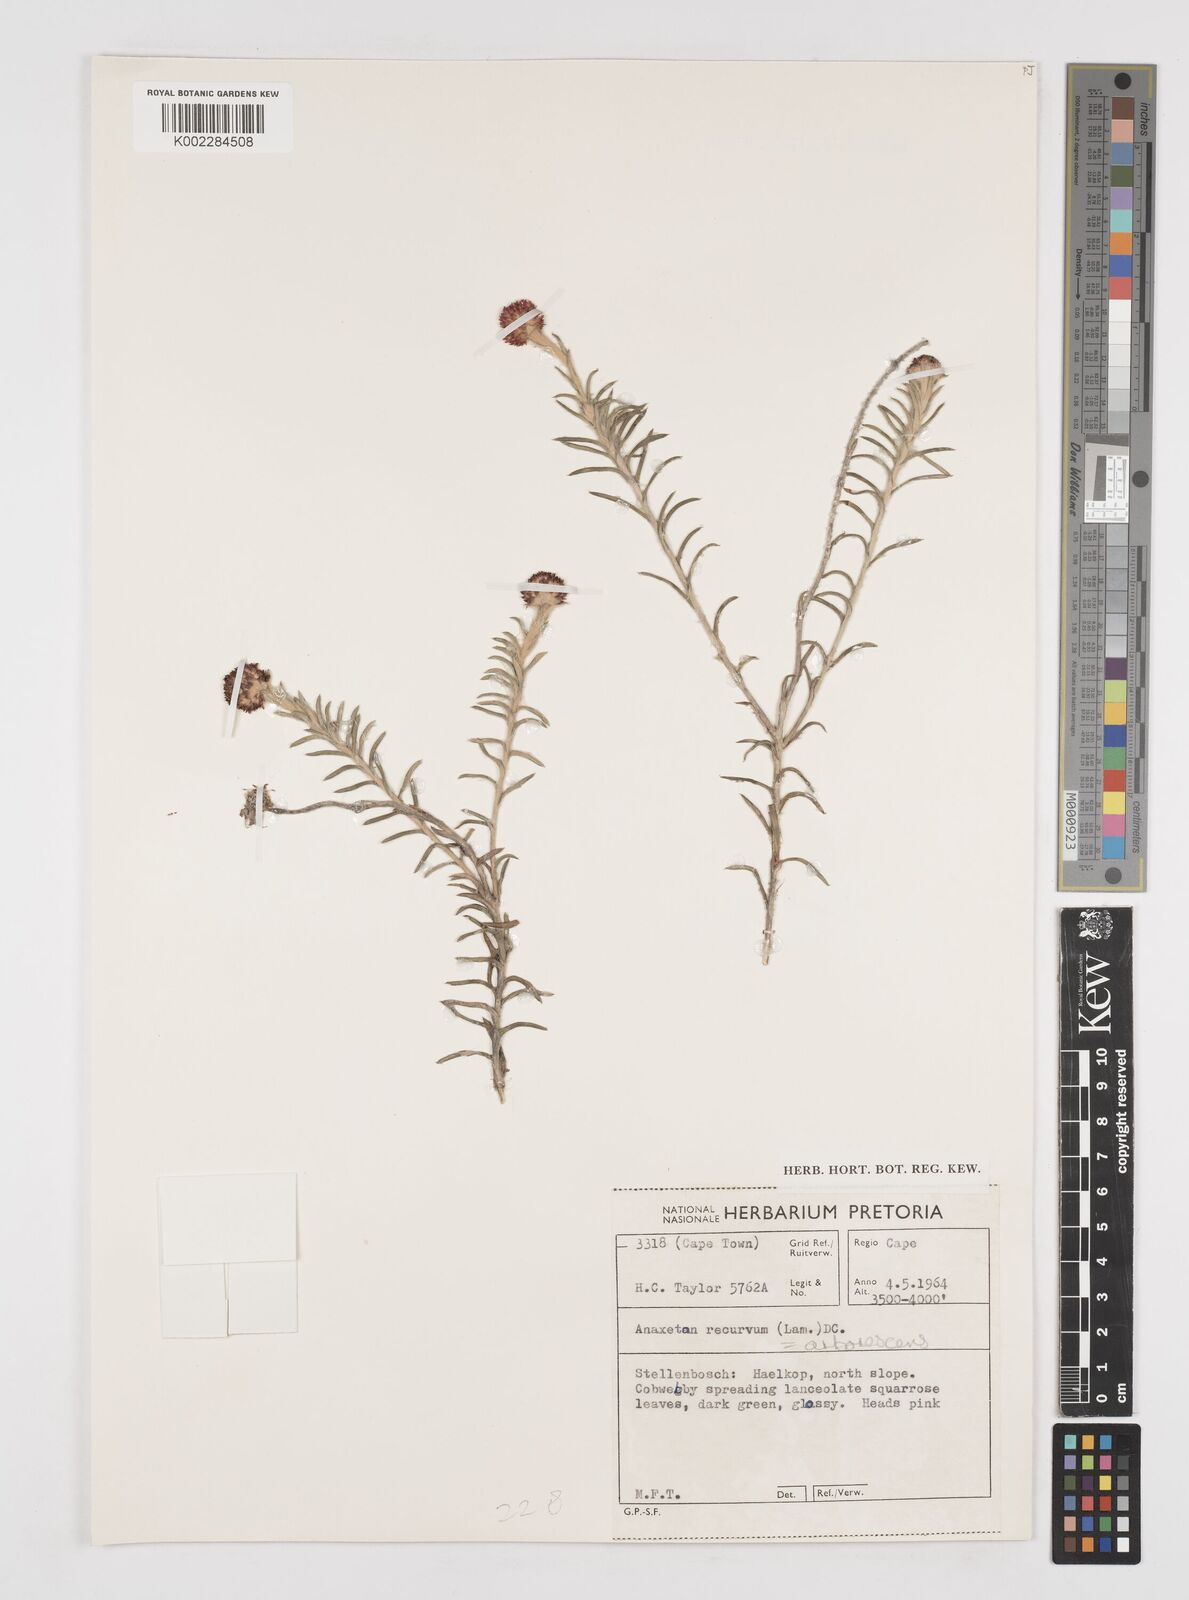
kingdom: Plantae
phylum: Tracheophyta
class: Magnoliopsida
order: Asterales
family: Asteraceae
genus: Anaxeton
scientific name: Anaxeton arborescens
